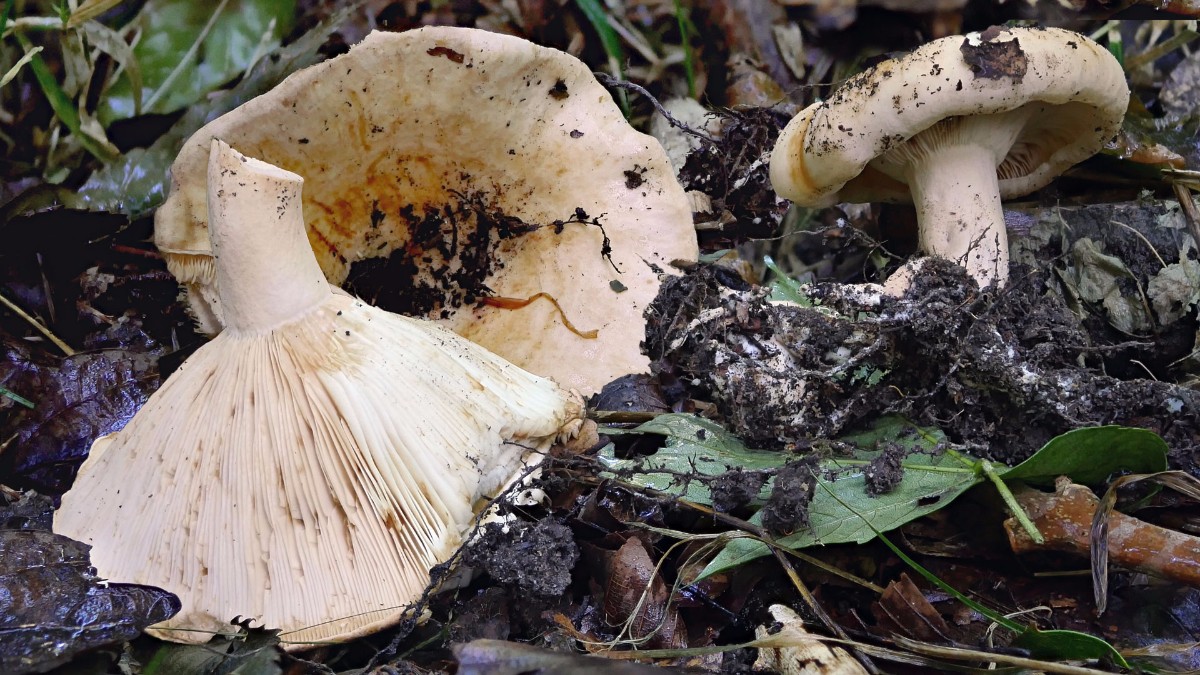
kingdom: Fungi
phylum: Basidiomycota
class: Agaricomycetes
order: Russulales
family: Russulaceae
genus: Lactarius
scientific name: Lactarius evosmus
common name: bæltet mælkehat
